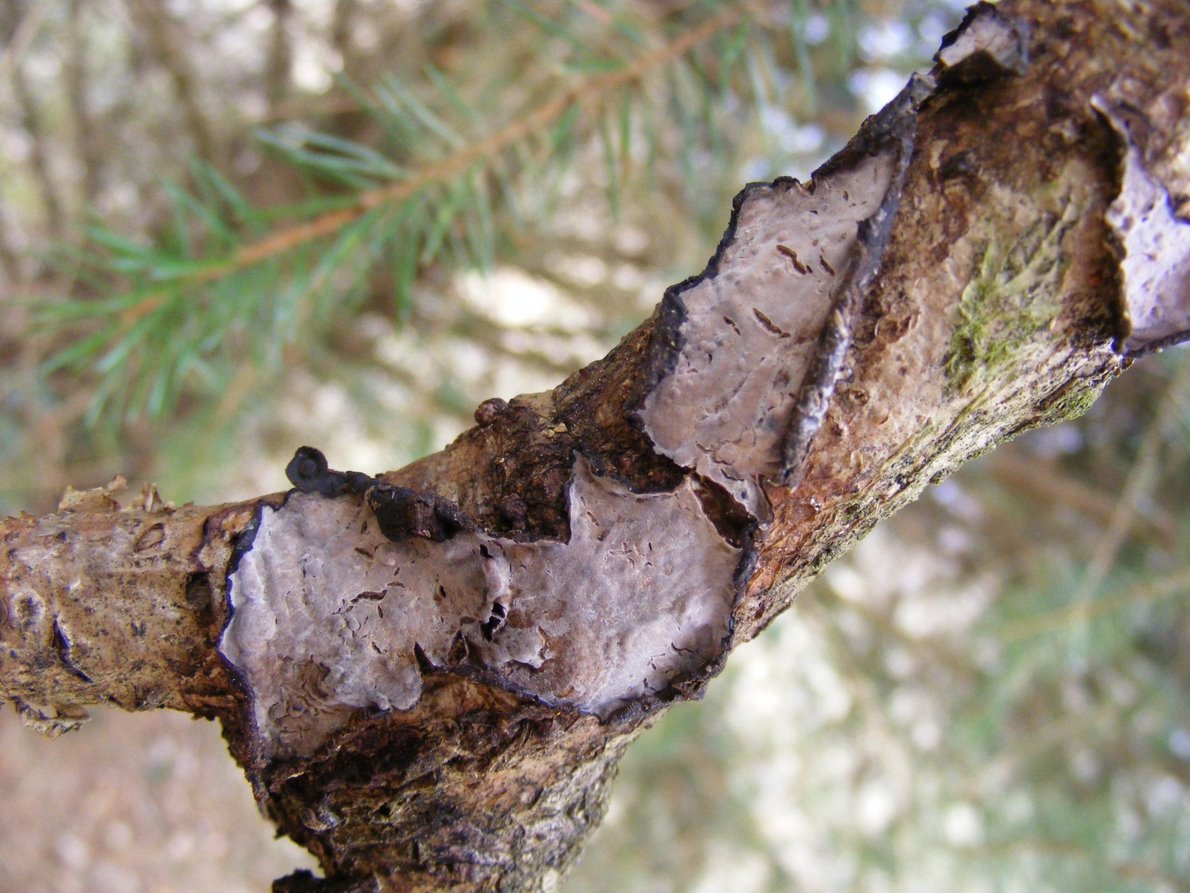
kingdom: Fungi
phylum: Basidiomycota
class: Agaricomycetes
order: Russulales
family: Peniophoraceae
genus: Peniophora
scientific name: Peniophora quercina
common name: ege-voksskind
